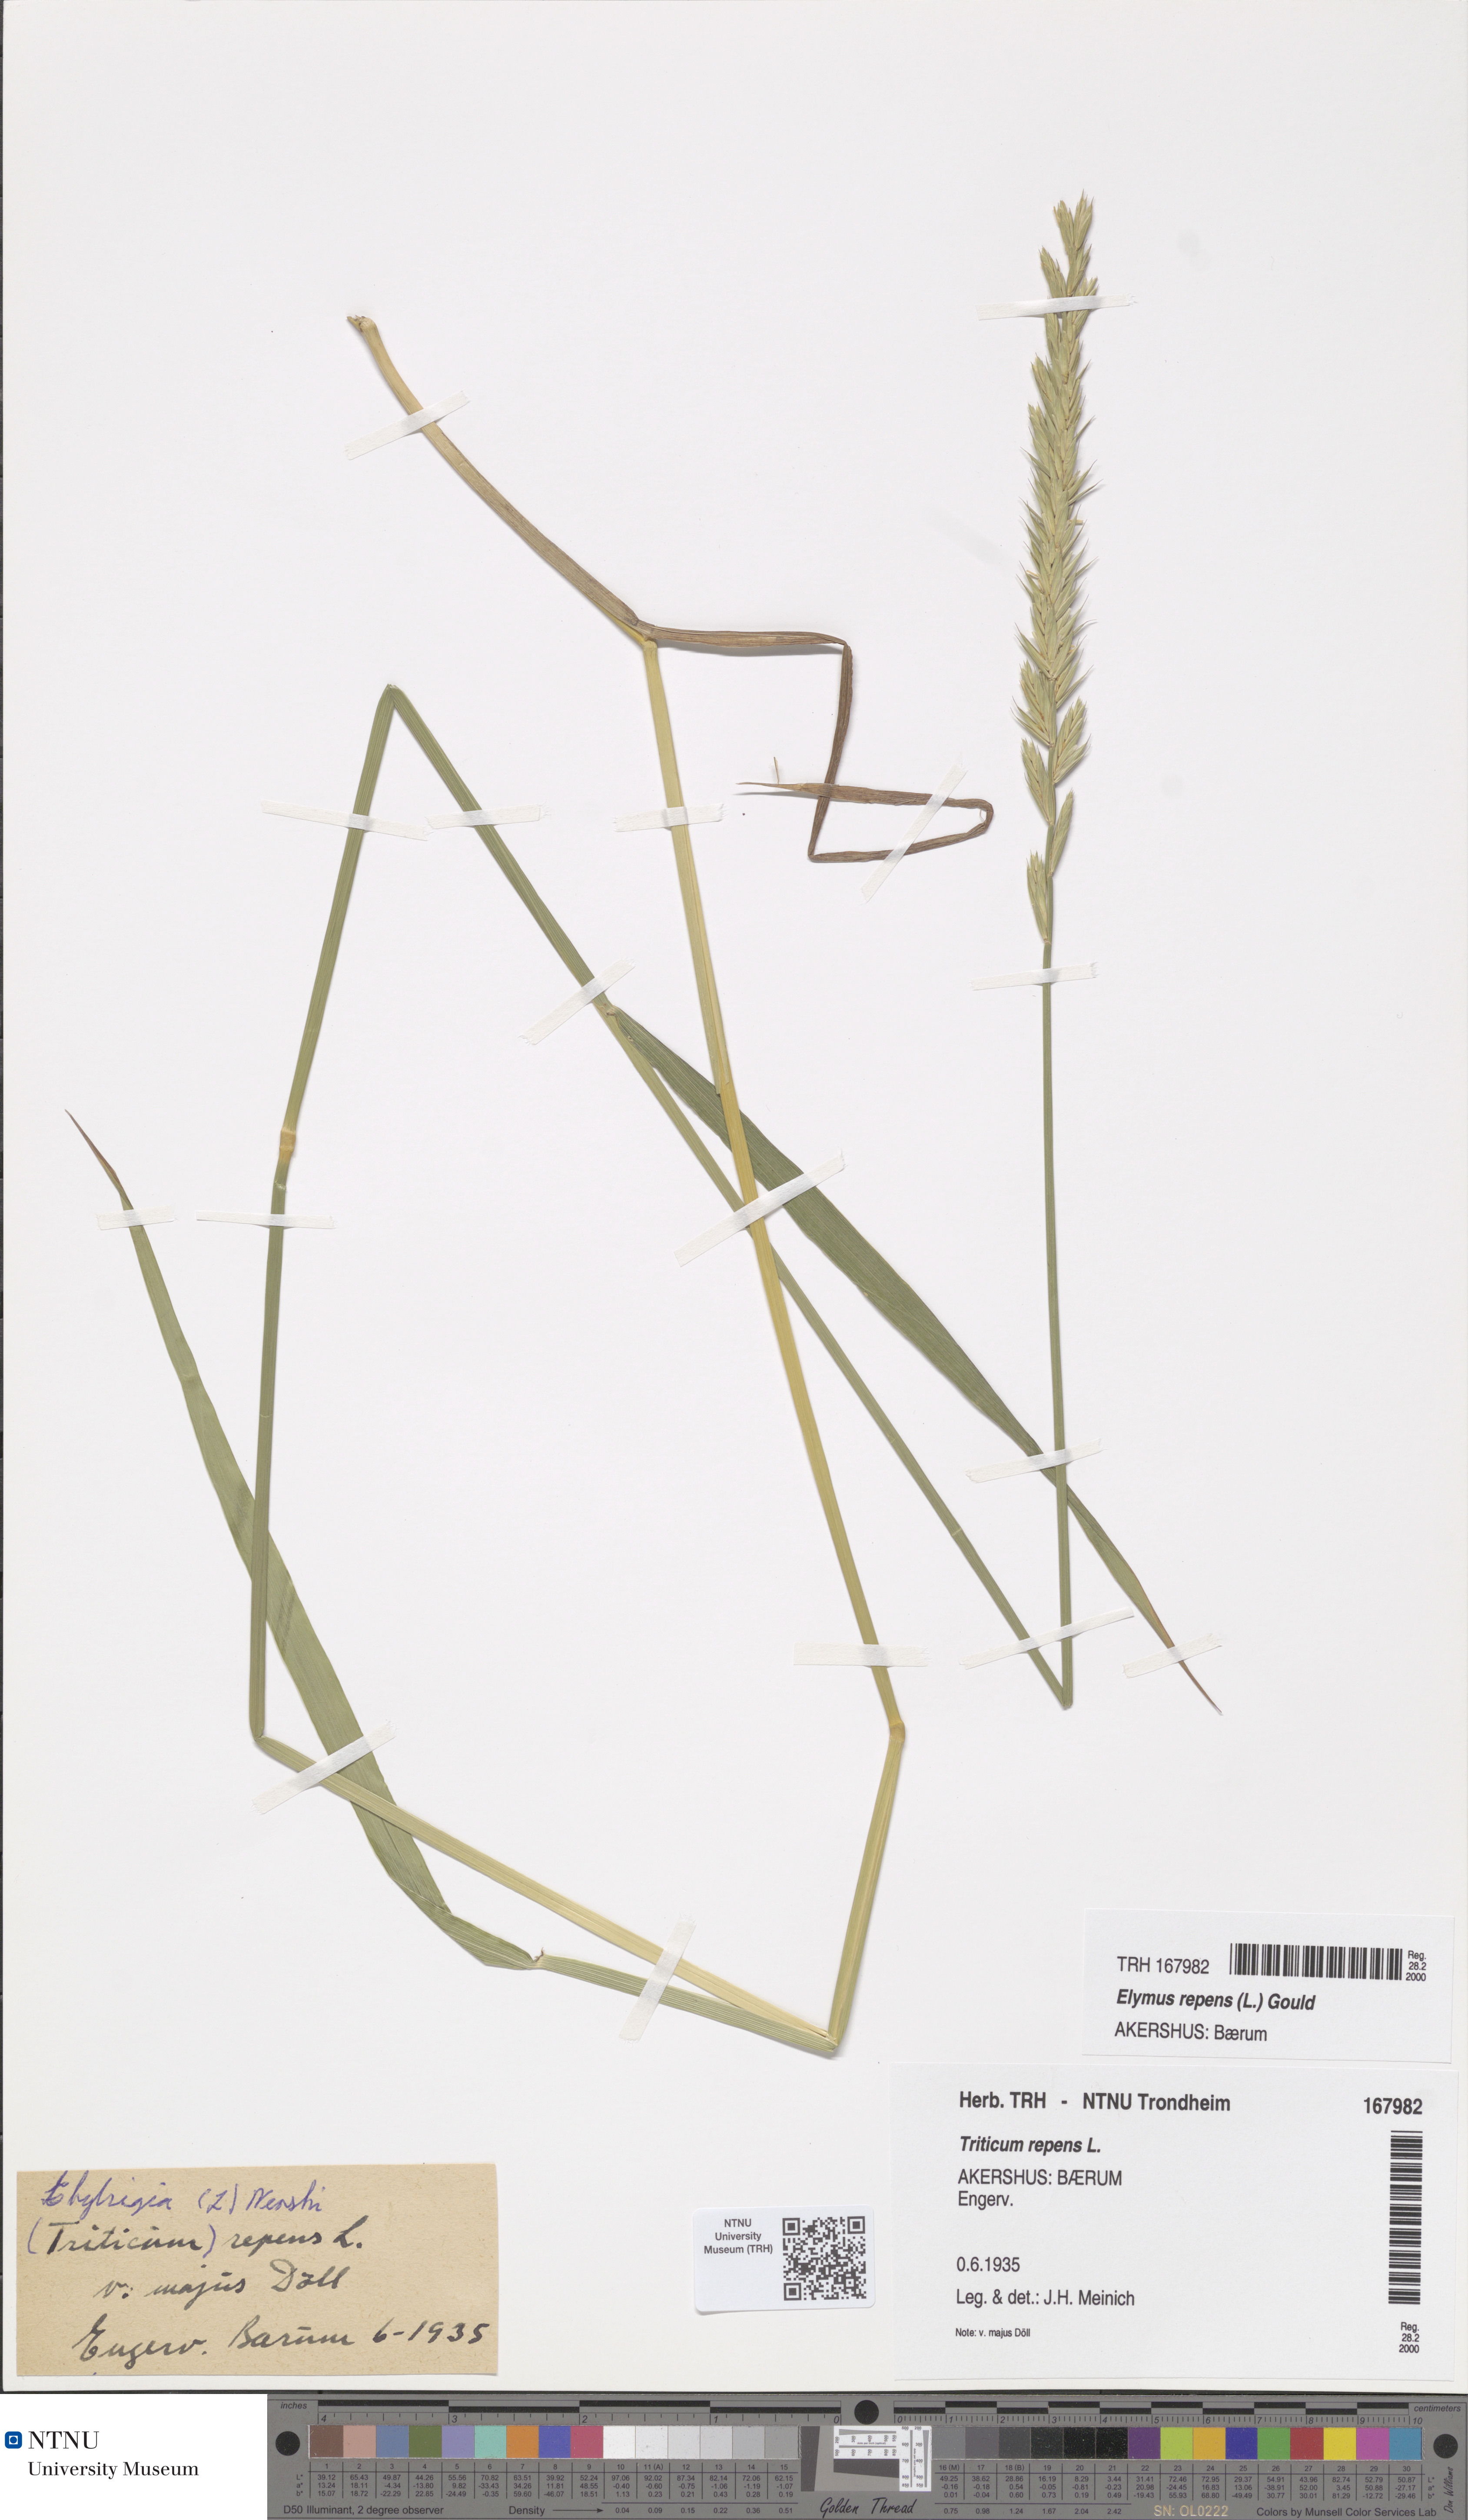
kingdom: Plantae
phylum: Tracheophyta
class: Liliopsida
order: Poales
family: Poaceae
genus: Elymus
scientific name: Elymus repens
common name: Quackgrass
